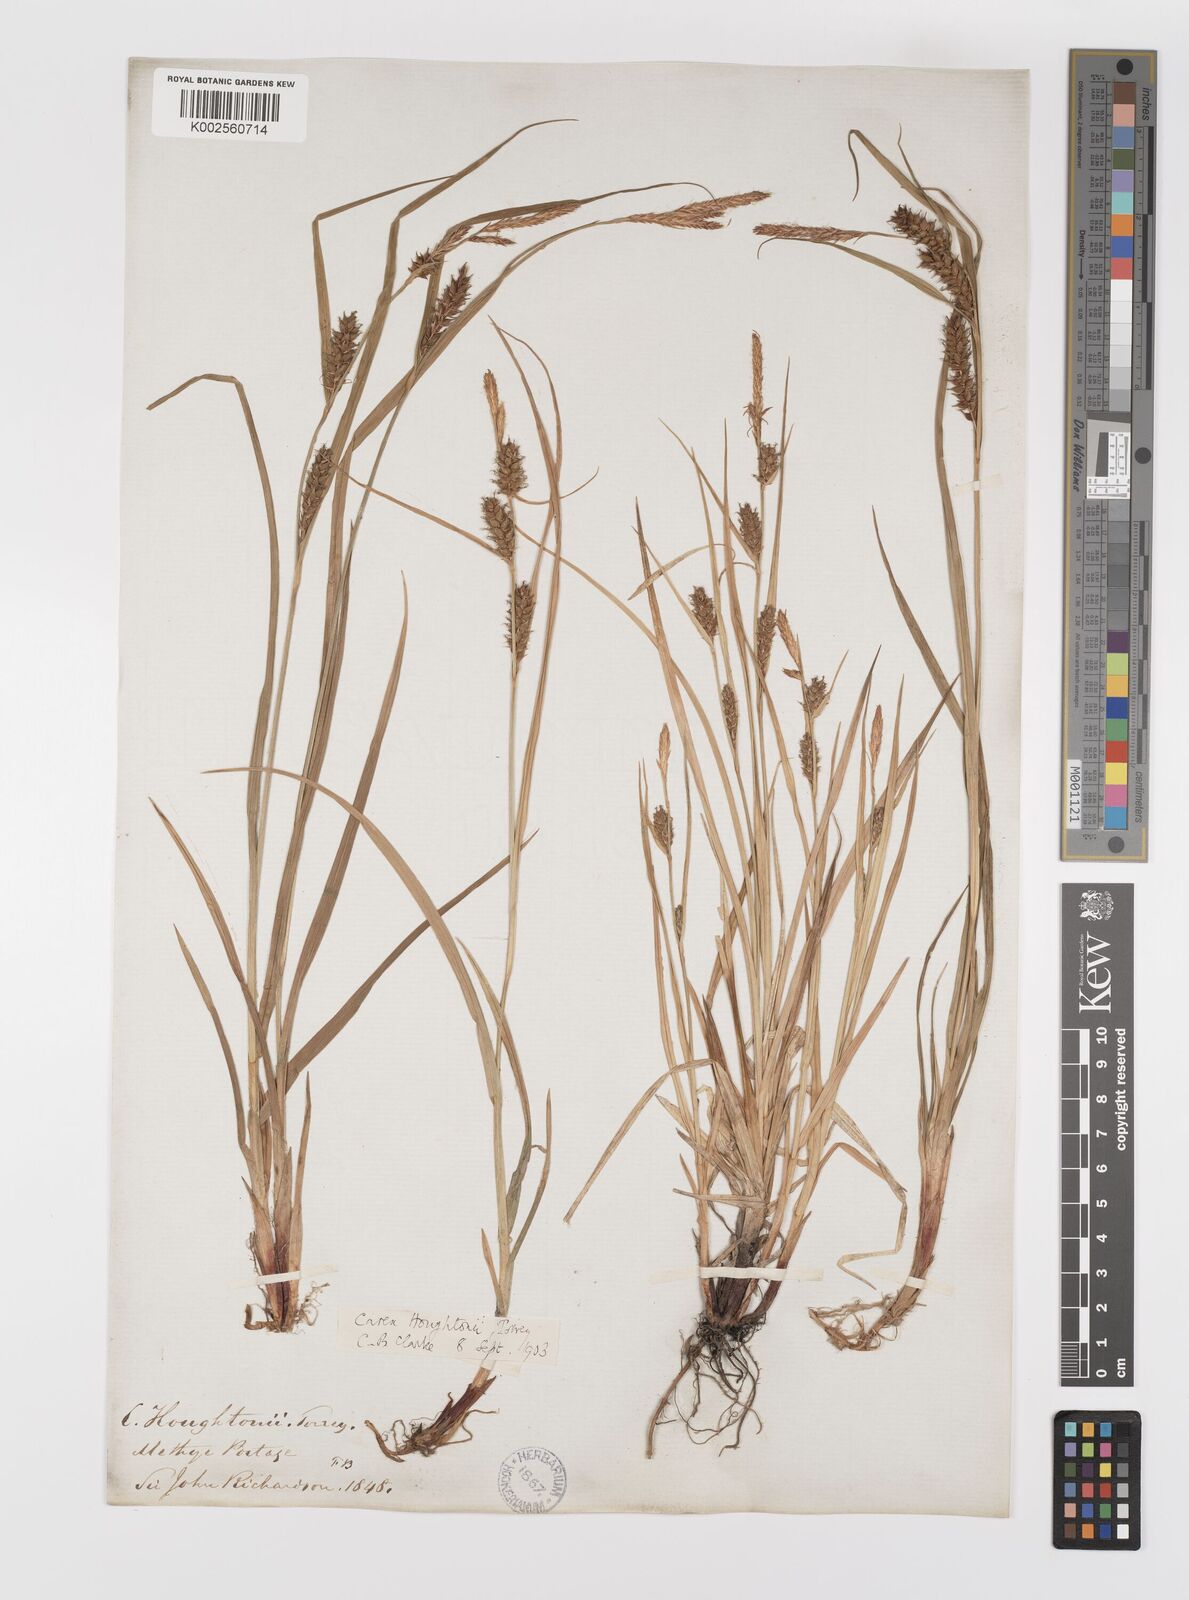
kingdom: Plantae
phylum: Tracheophyta
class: Liliopsida
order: Poales
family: Cyperaceae
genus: Carex
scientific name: Carex houghtoniana
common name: Houghton's sedge
